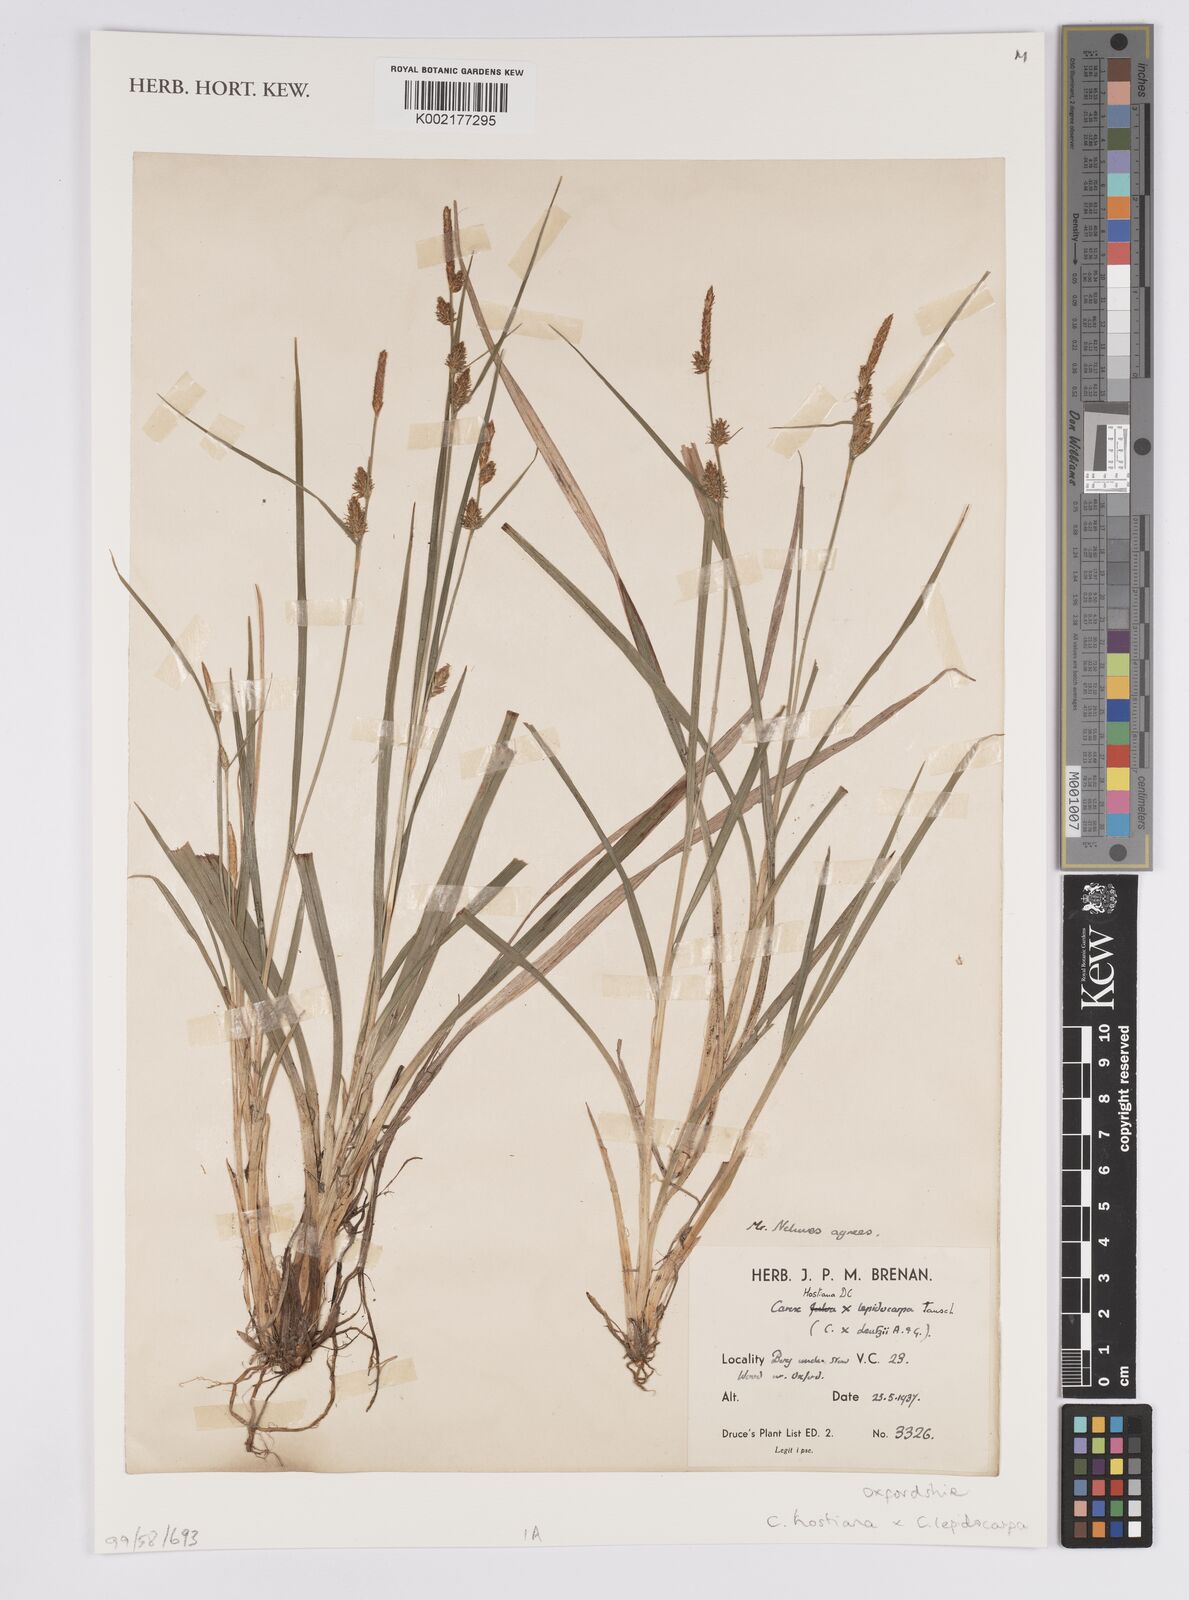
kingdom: Plantae
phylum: Tracheophyta
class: Liliopsida
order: Poales
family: Cyperaceae
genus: Carex
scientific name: Carex hostiana
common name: Tawny sedge
